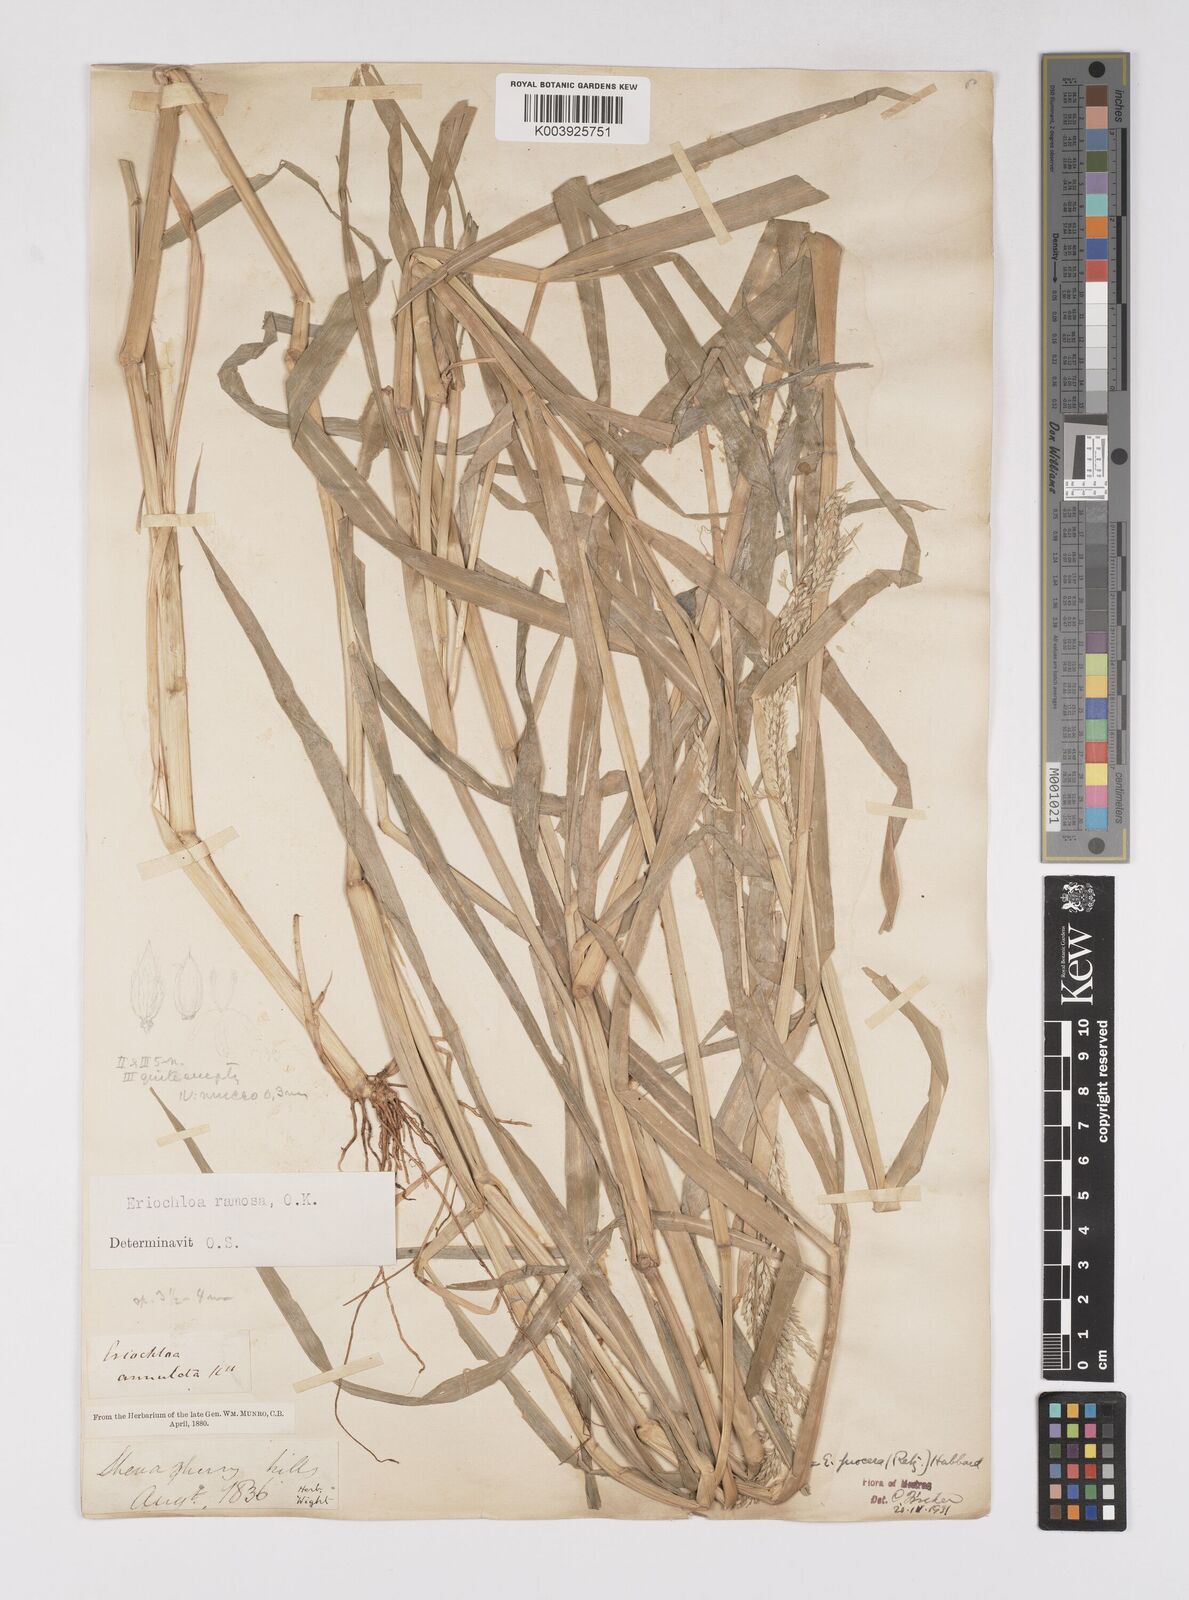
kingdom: Plantae
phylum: Tracheophyta
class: Liliopsida
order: Poales
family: Poaceae
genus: Eriochloa
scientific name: Eriochloa procera
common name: Spring grass
